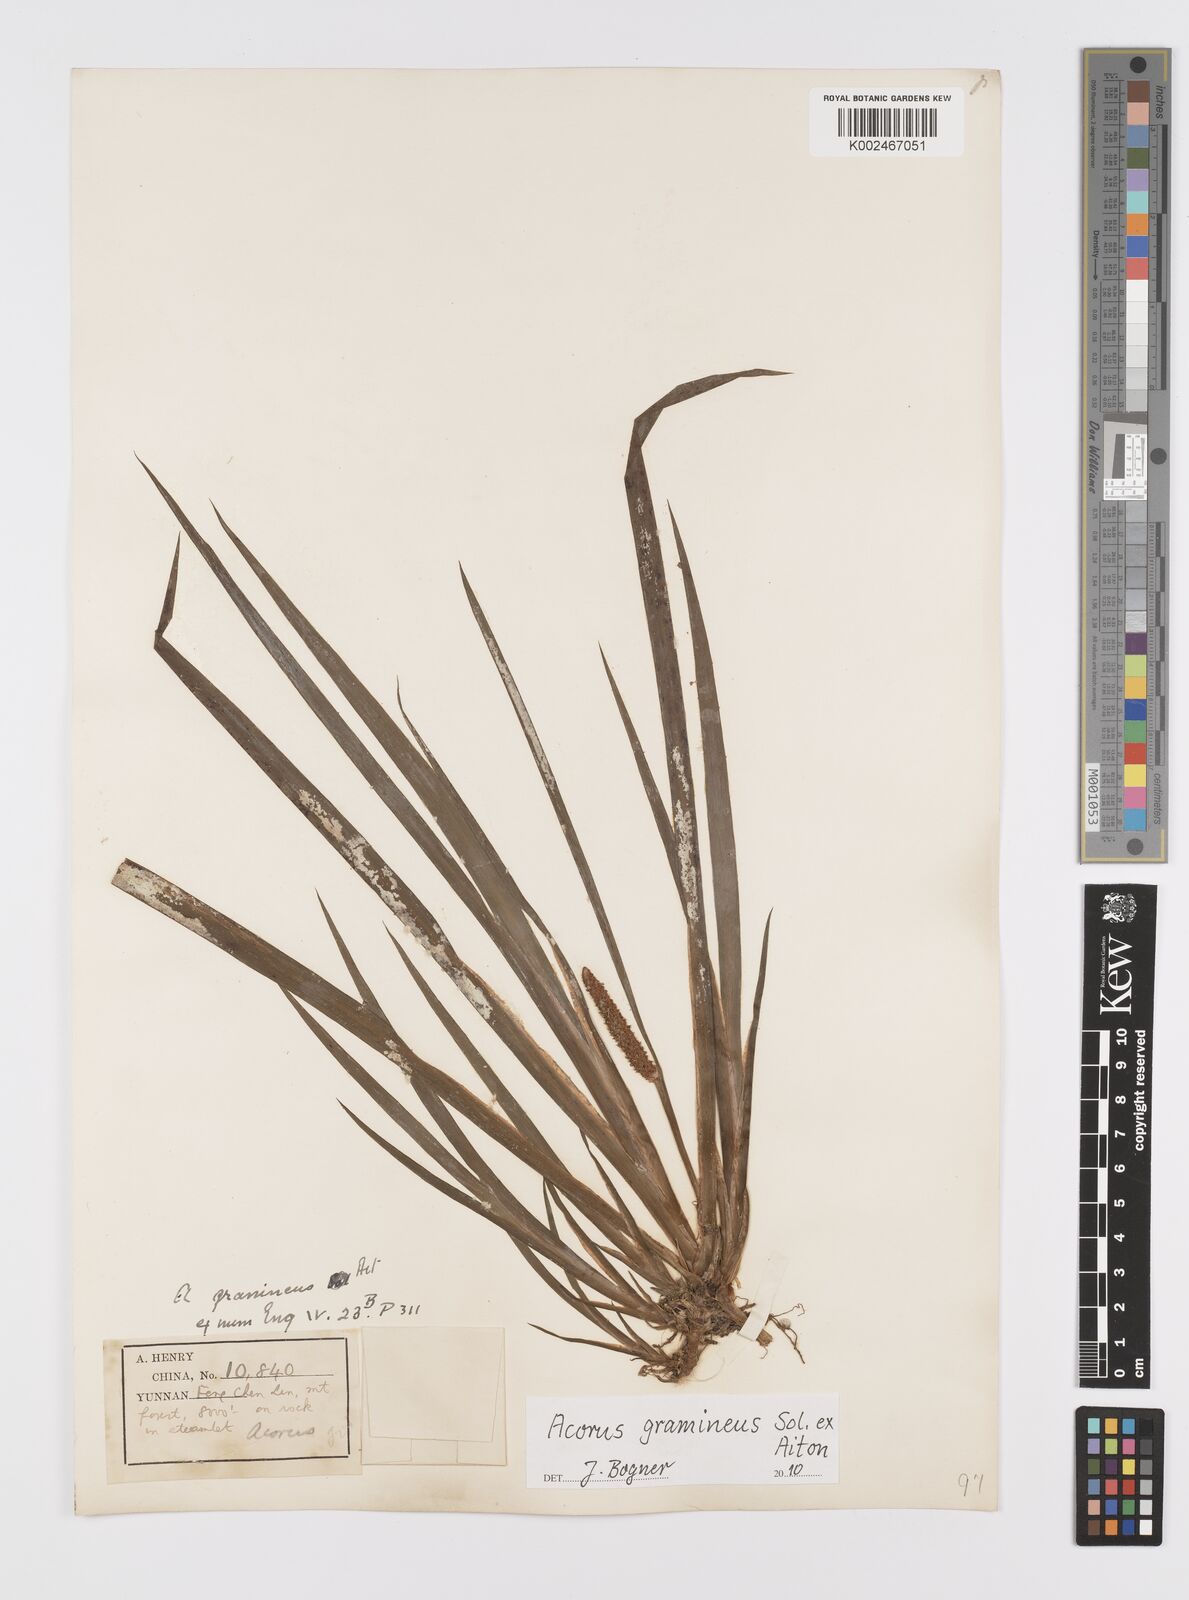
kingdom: Plantae
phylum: Tracheophyta
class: Liliopsida
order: Acorales
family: Acoraceae
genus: Acorus
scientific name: Acorus gramineus
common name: Slender sweet-flag
